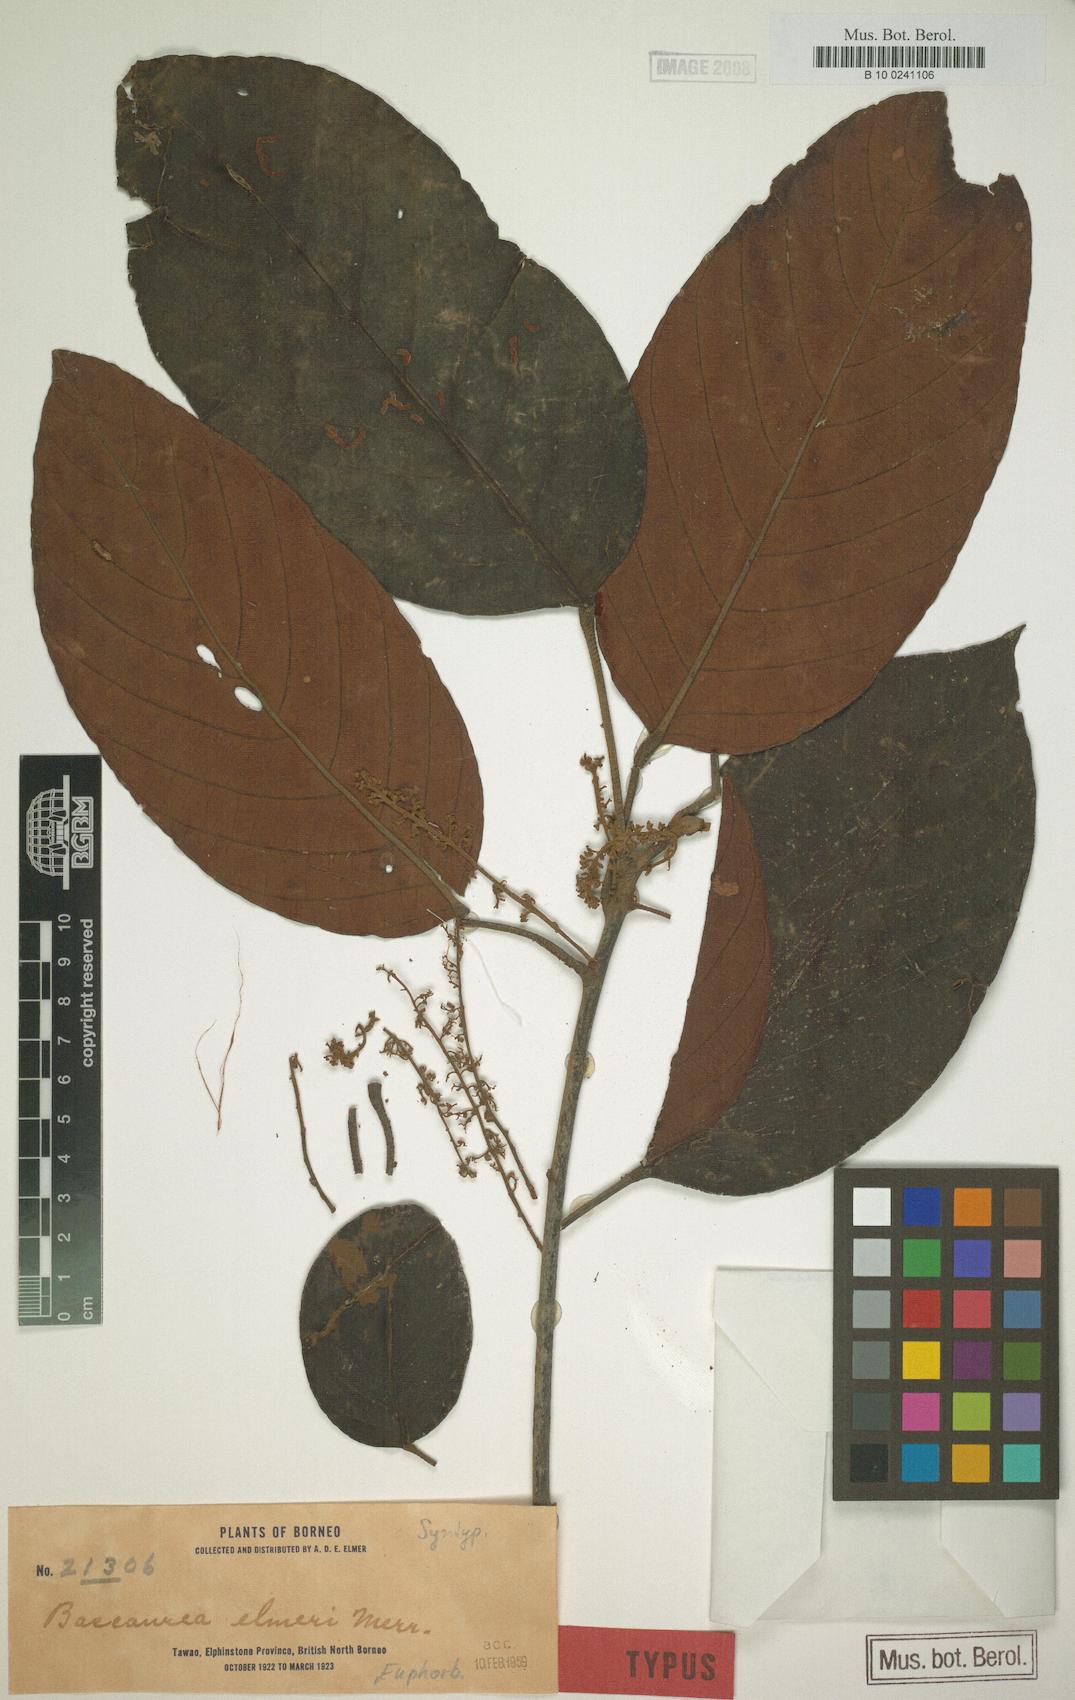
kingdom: Plantae
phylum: Tracheophyta
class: Magnoliopsida
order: Malpighiales
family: Phyllanthaceae
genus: Baccaurea
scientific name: Baccaurea pubera
